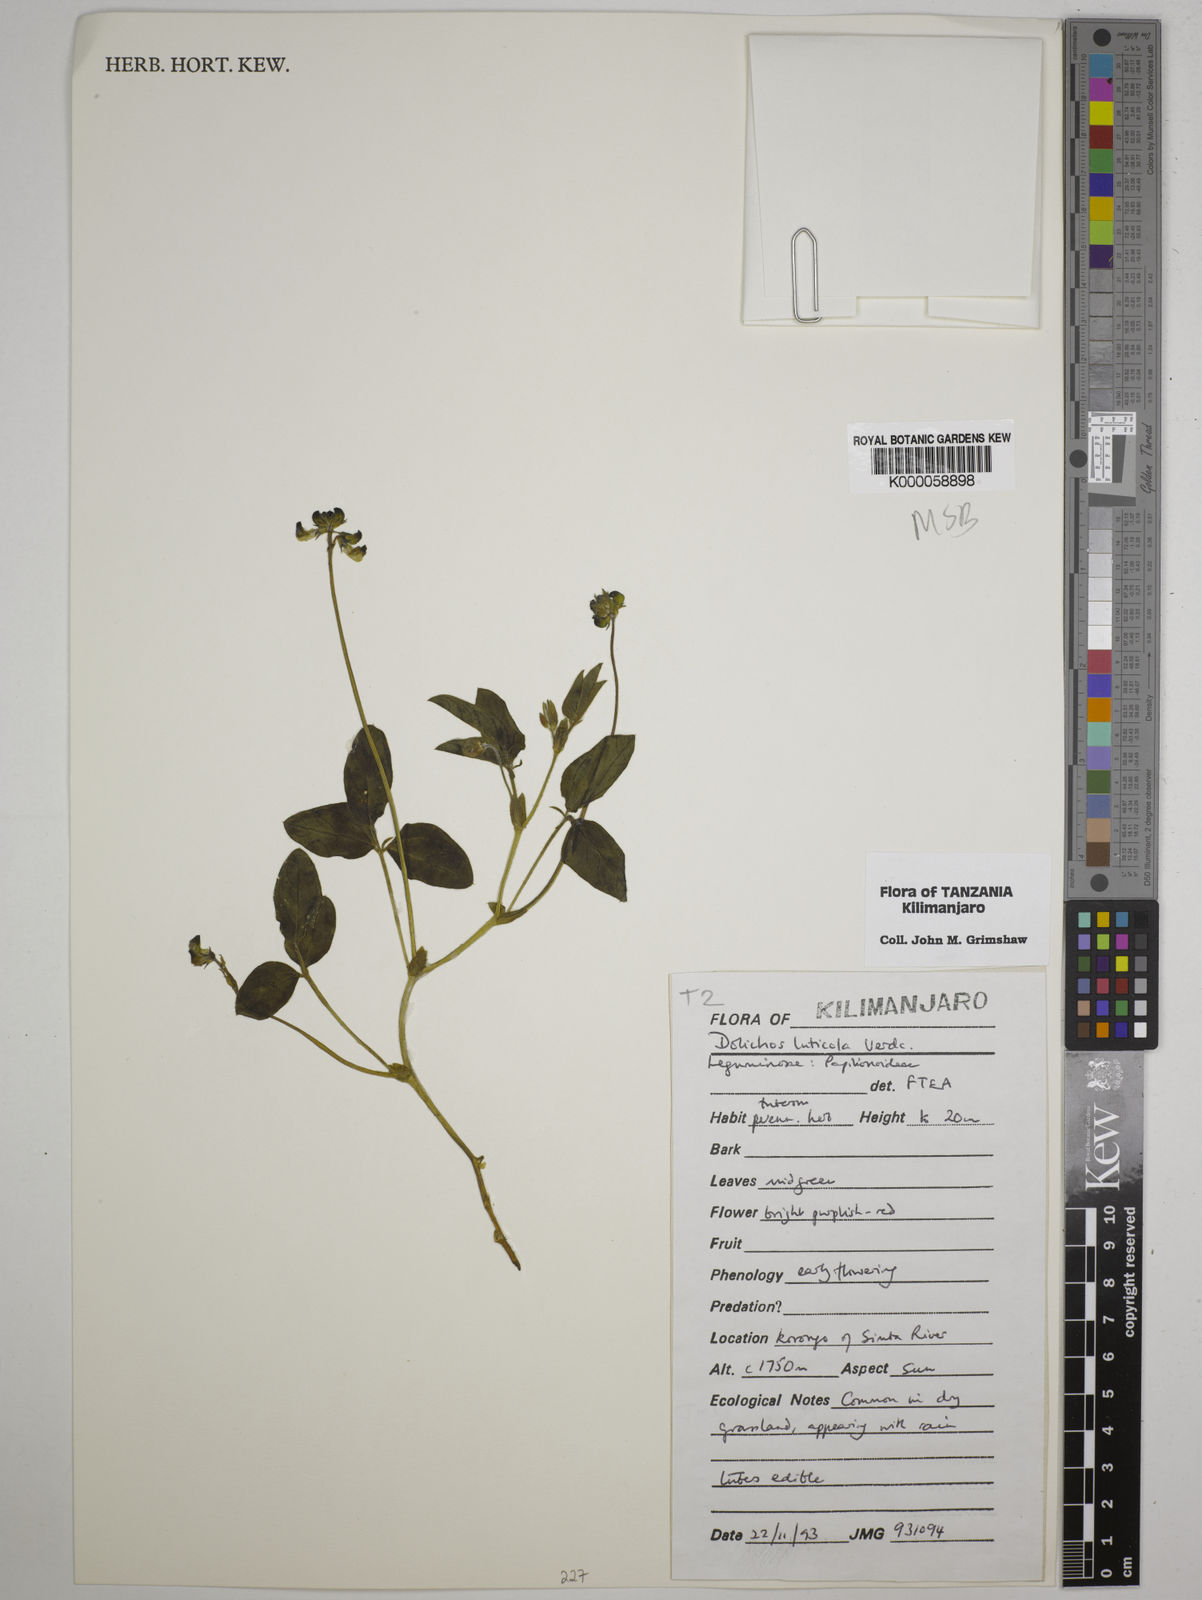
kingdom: Plantae
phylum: Tracheophyta
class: Magnoliopsida
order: Fabales
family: Fabaceae
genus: Dolichos
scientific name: Dolichos luticola
